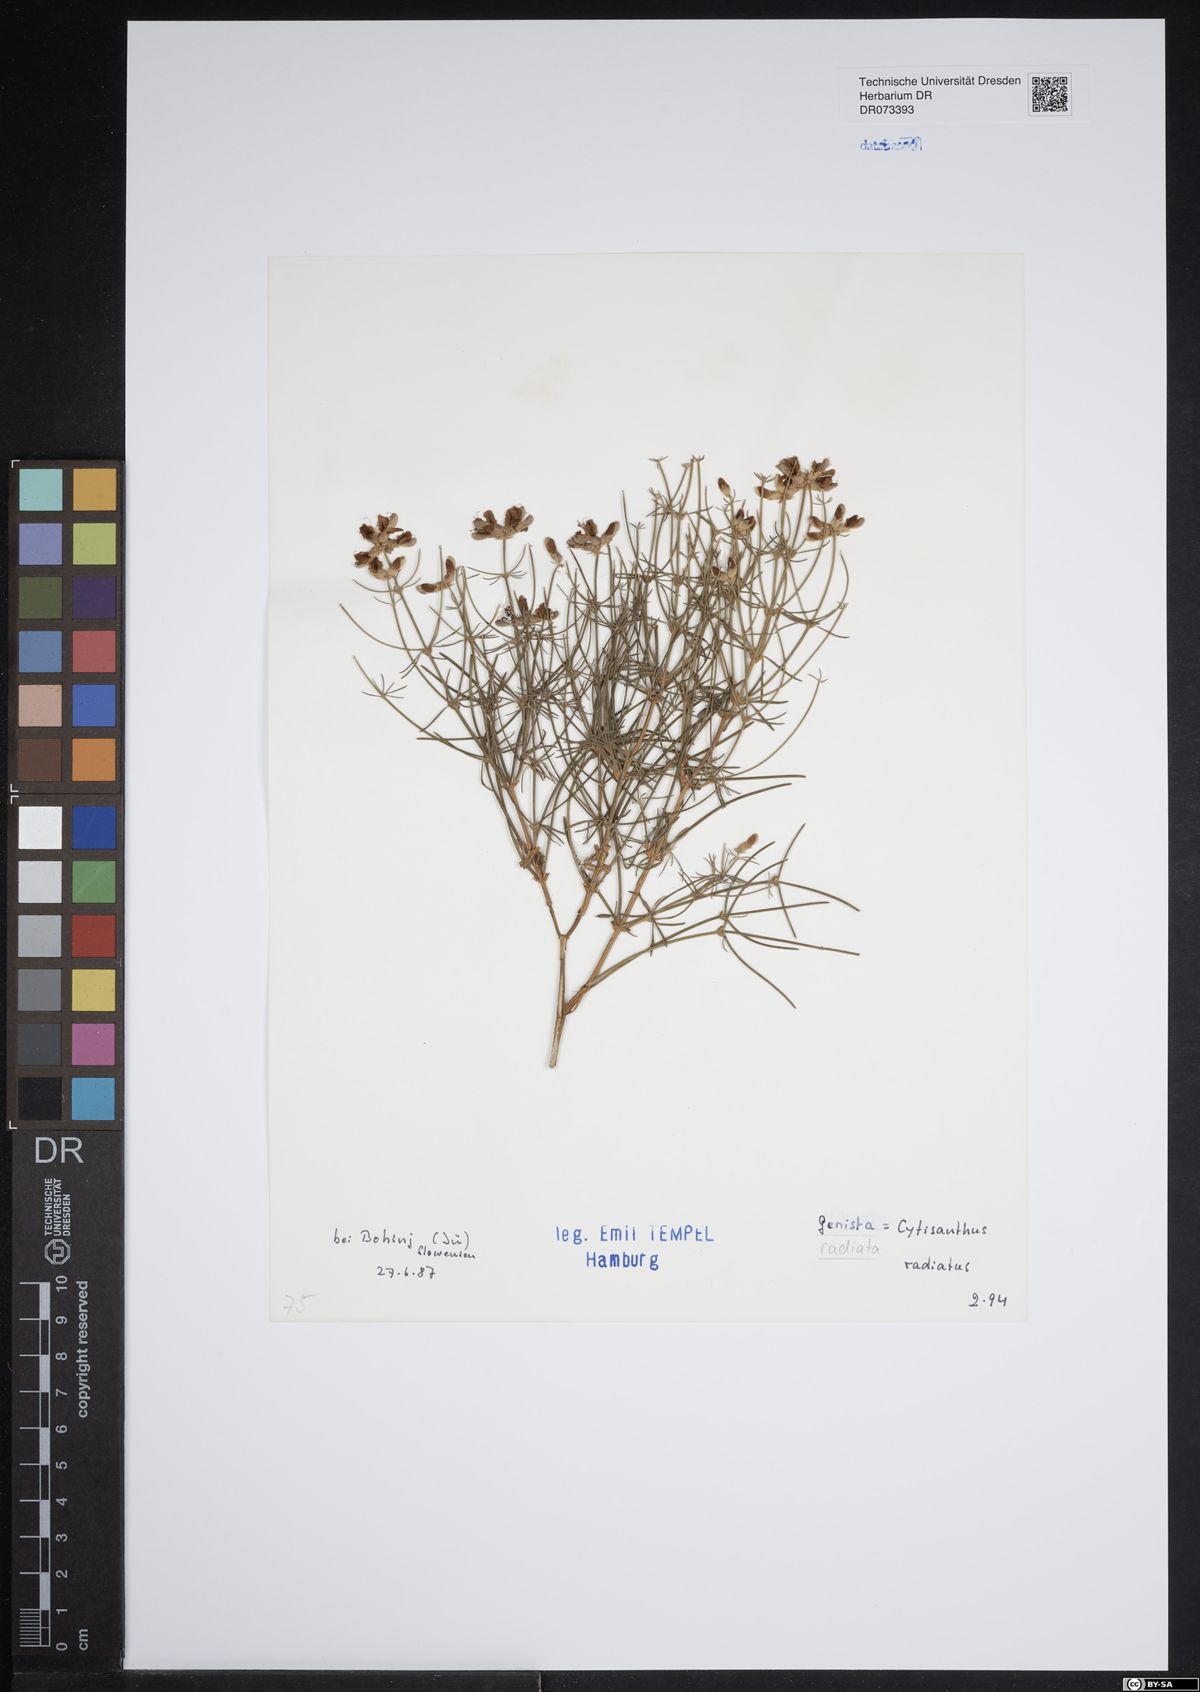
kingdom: Plantae
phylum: Tracheophyta
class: Magnoliopsida
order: Fabales
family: Fabaceae
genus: Genista
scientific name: Genista radiata
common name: Southern greenweed
